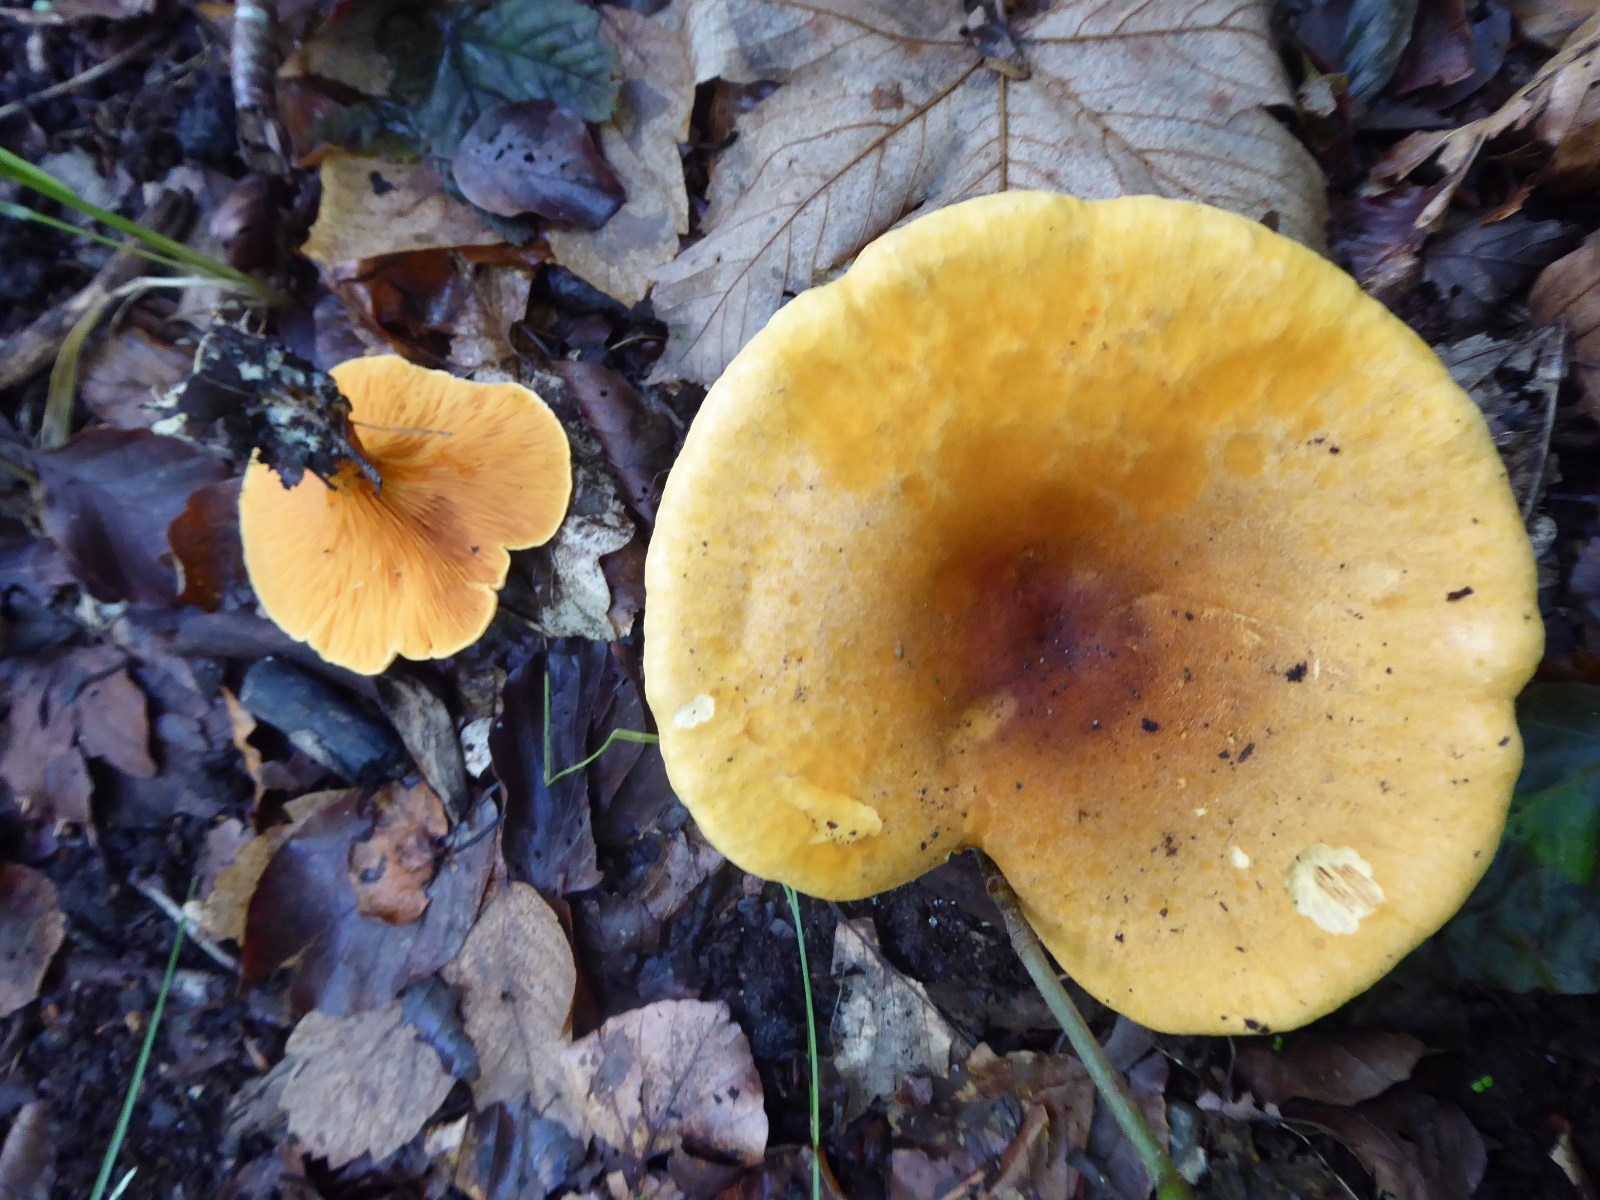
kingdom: Fungi
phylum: Basidiomycota
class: Agaricomycetes
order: Boletales
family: Hygrophoropsidaceae
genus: Hygrophoropsis
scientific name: Hygrophoropsis aurantiaca
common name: almindelig orangekantarel
